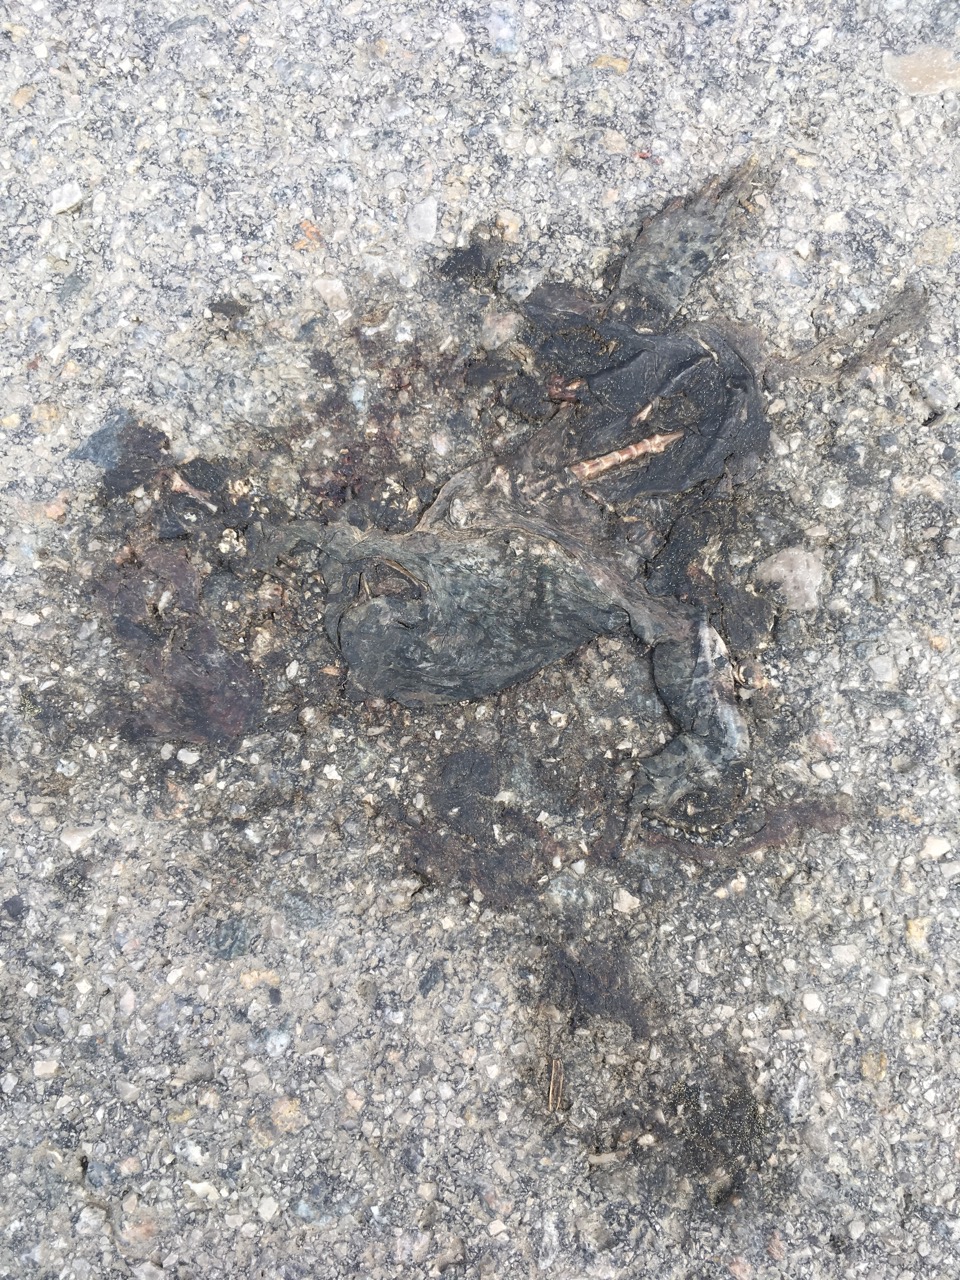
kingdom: Animalia
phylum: Chordata
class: Amphibia
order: Anura
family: Bufonidae
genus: Bufotes
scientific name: Bufotes viridis
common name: European green toad
